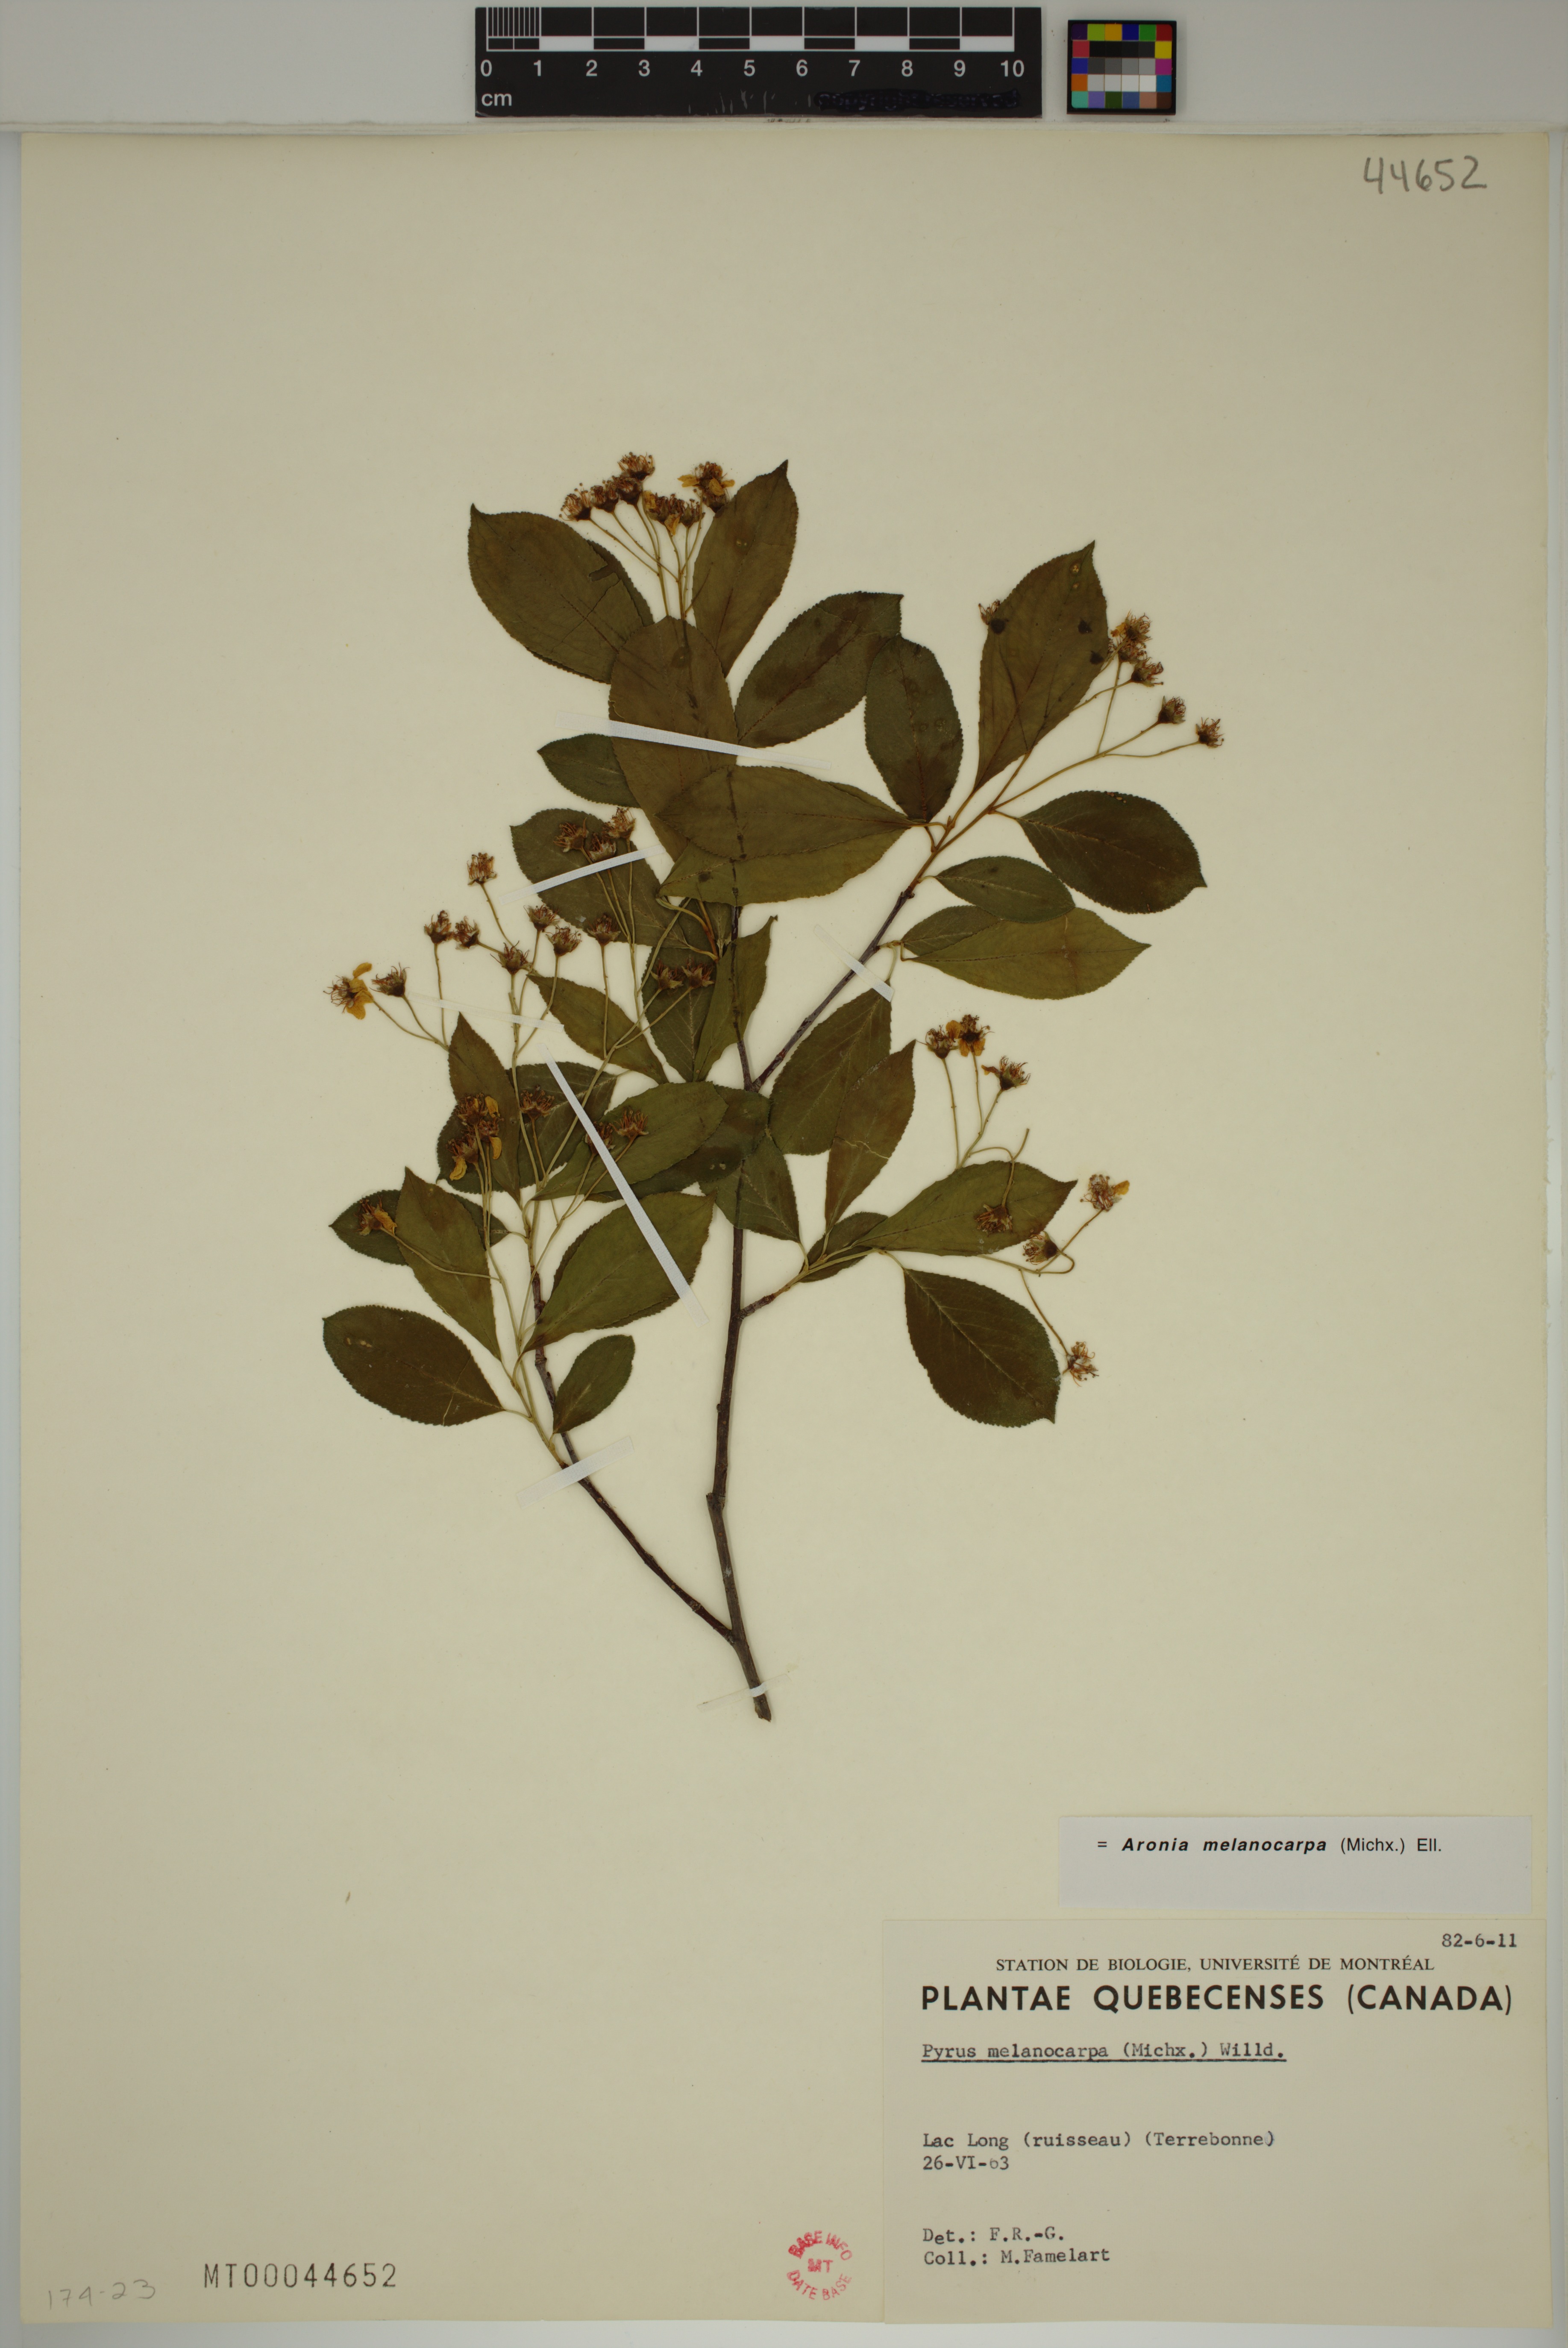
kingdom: Plantae
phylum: Tracheophyta
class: Magnoliopsida
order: Rosales
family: Rosaceae
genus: Aronia
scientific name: Aronia melanocarpa
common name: Black chokeberry
